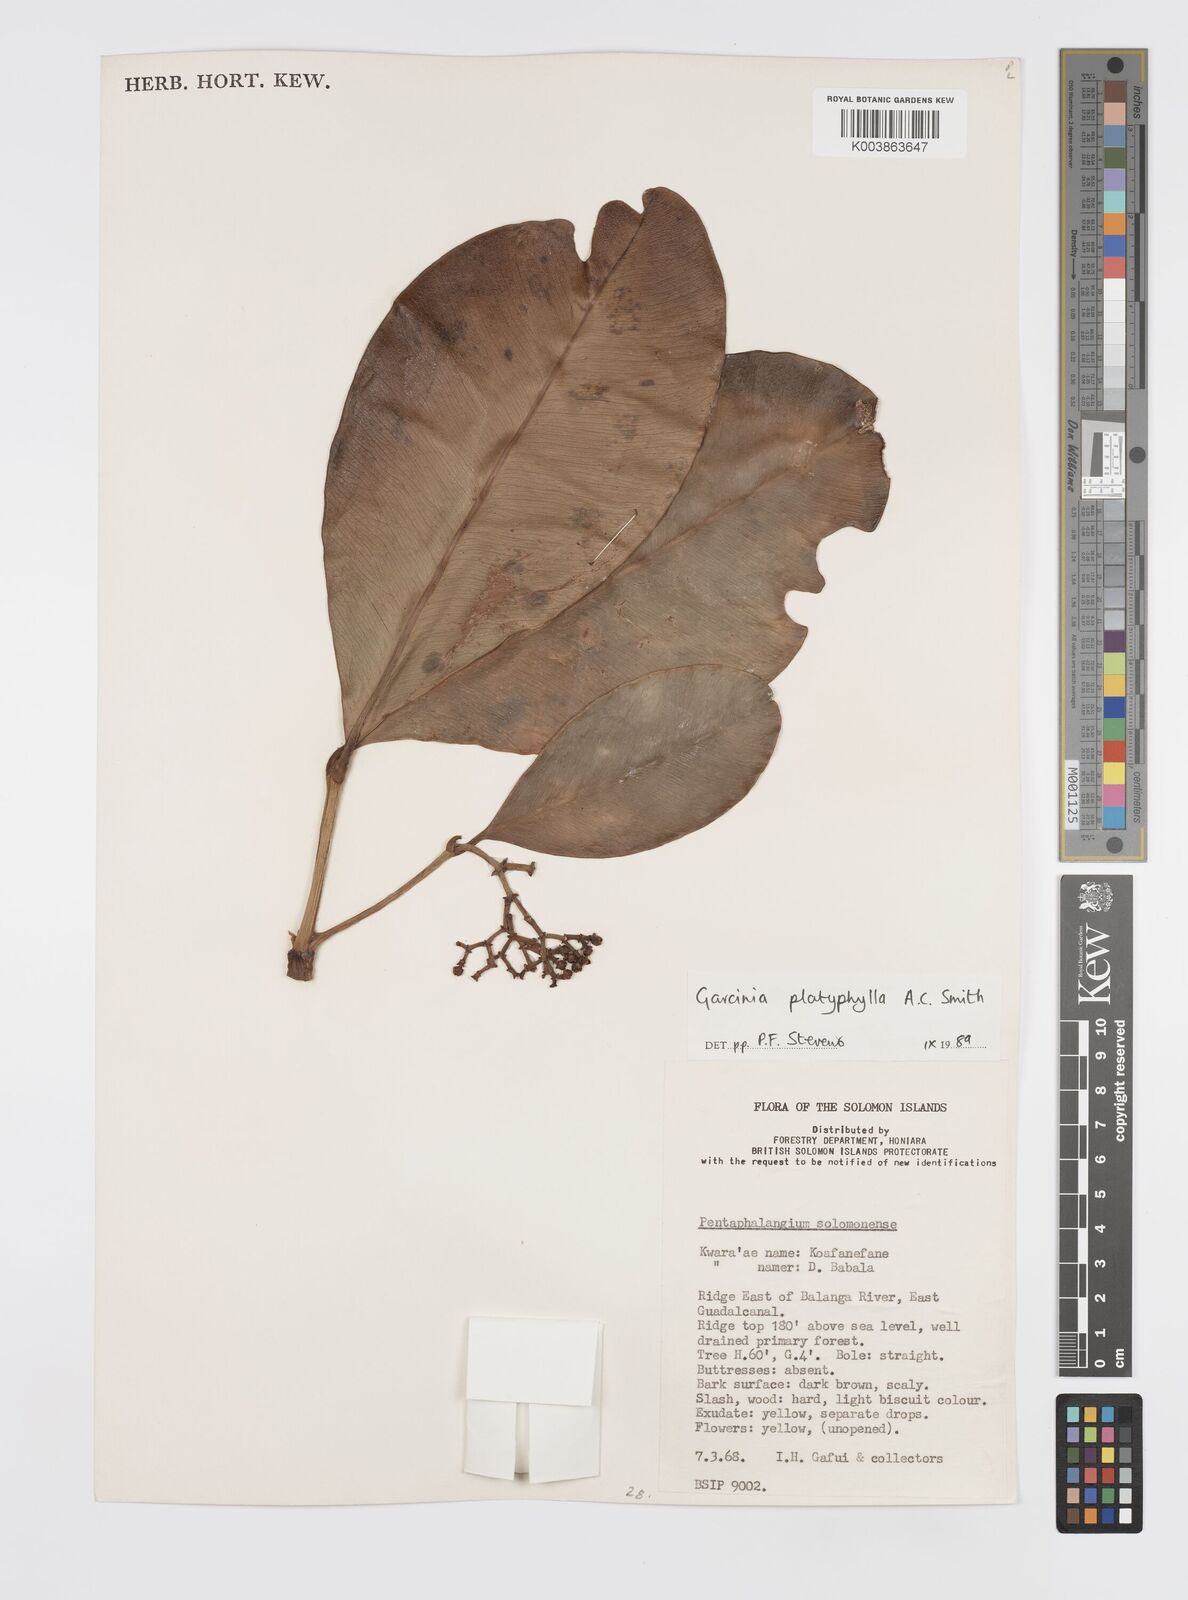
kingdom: Plantae
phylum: Tracheophyta
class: Magnoliopsida
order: Malpighiales
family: Clusiaceae
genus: Garcinia
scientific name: Garcinia platyphylla
